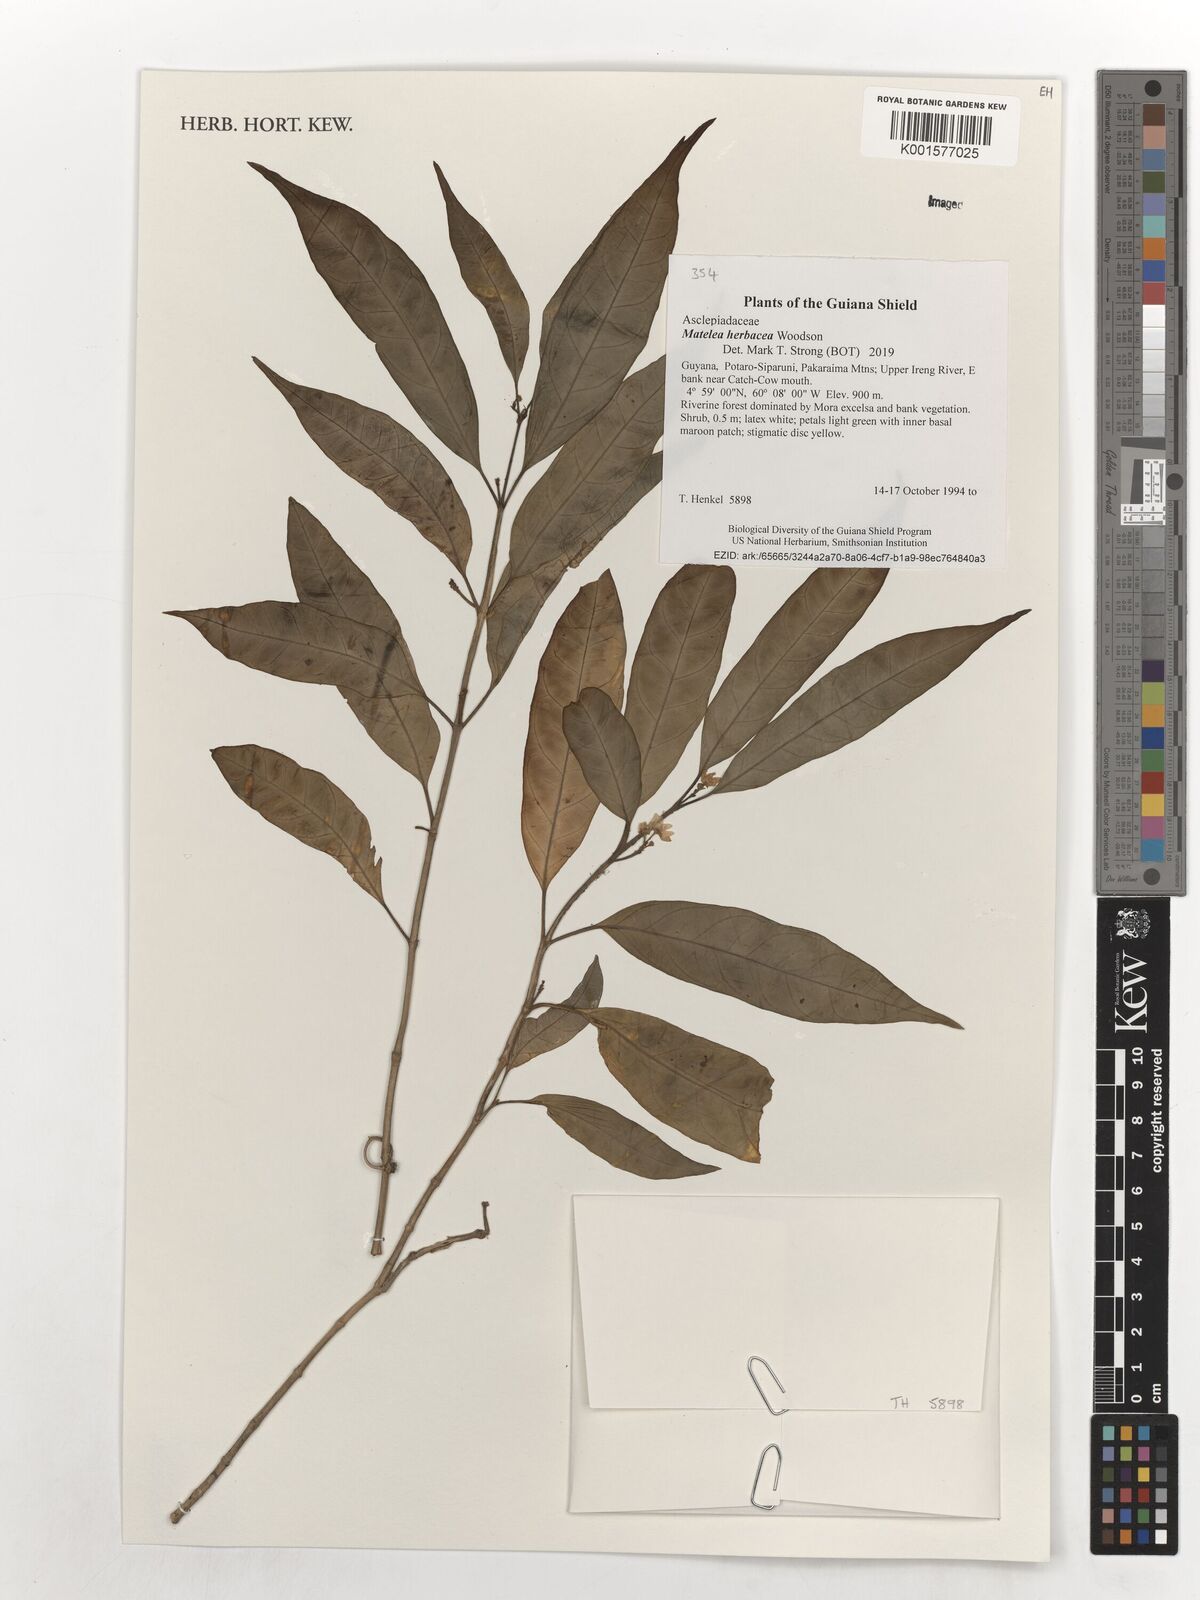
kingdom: Plantae
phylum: Tracheophyta
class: Magnoliopsida
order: Gentianales
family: Apocynaceae
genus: Matelea
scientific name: Matelea herbacea
